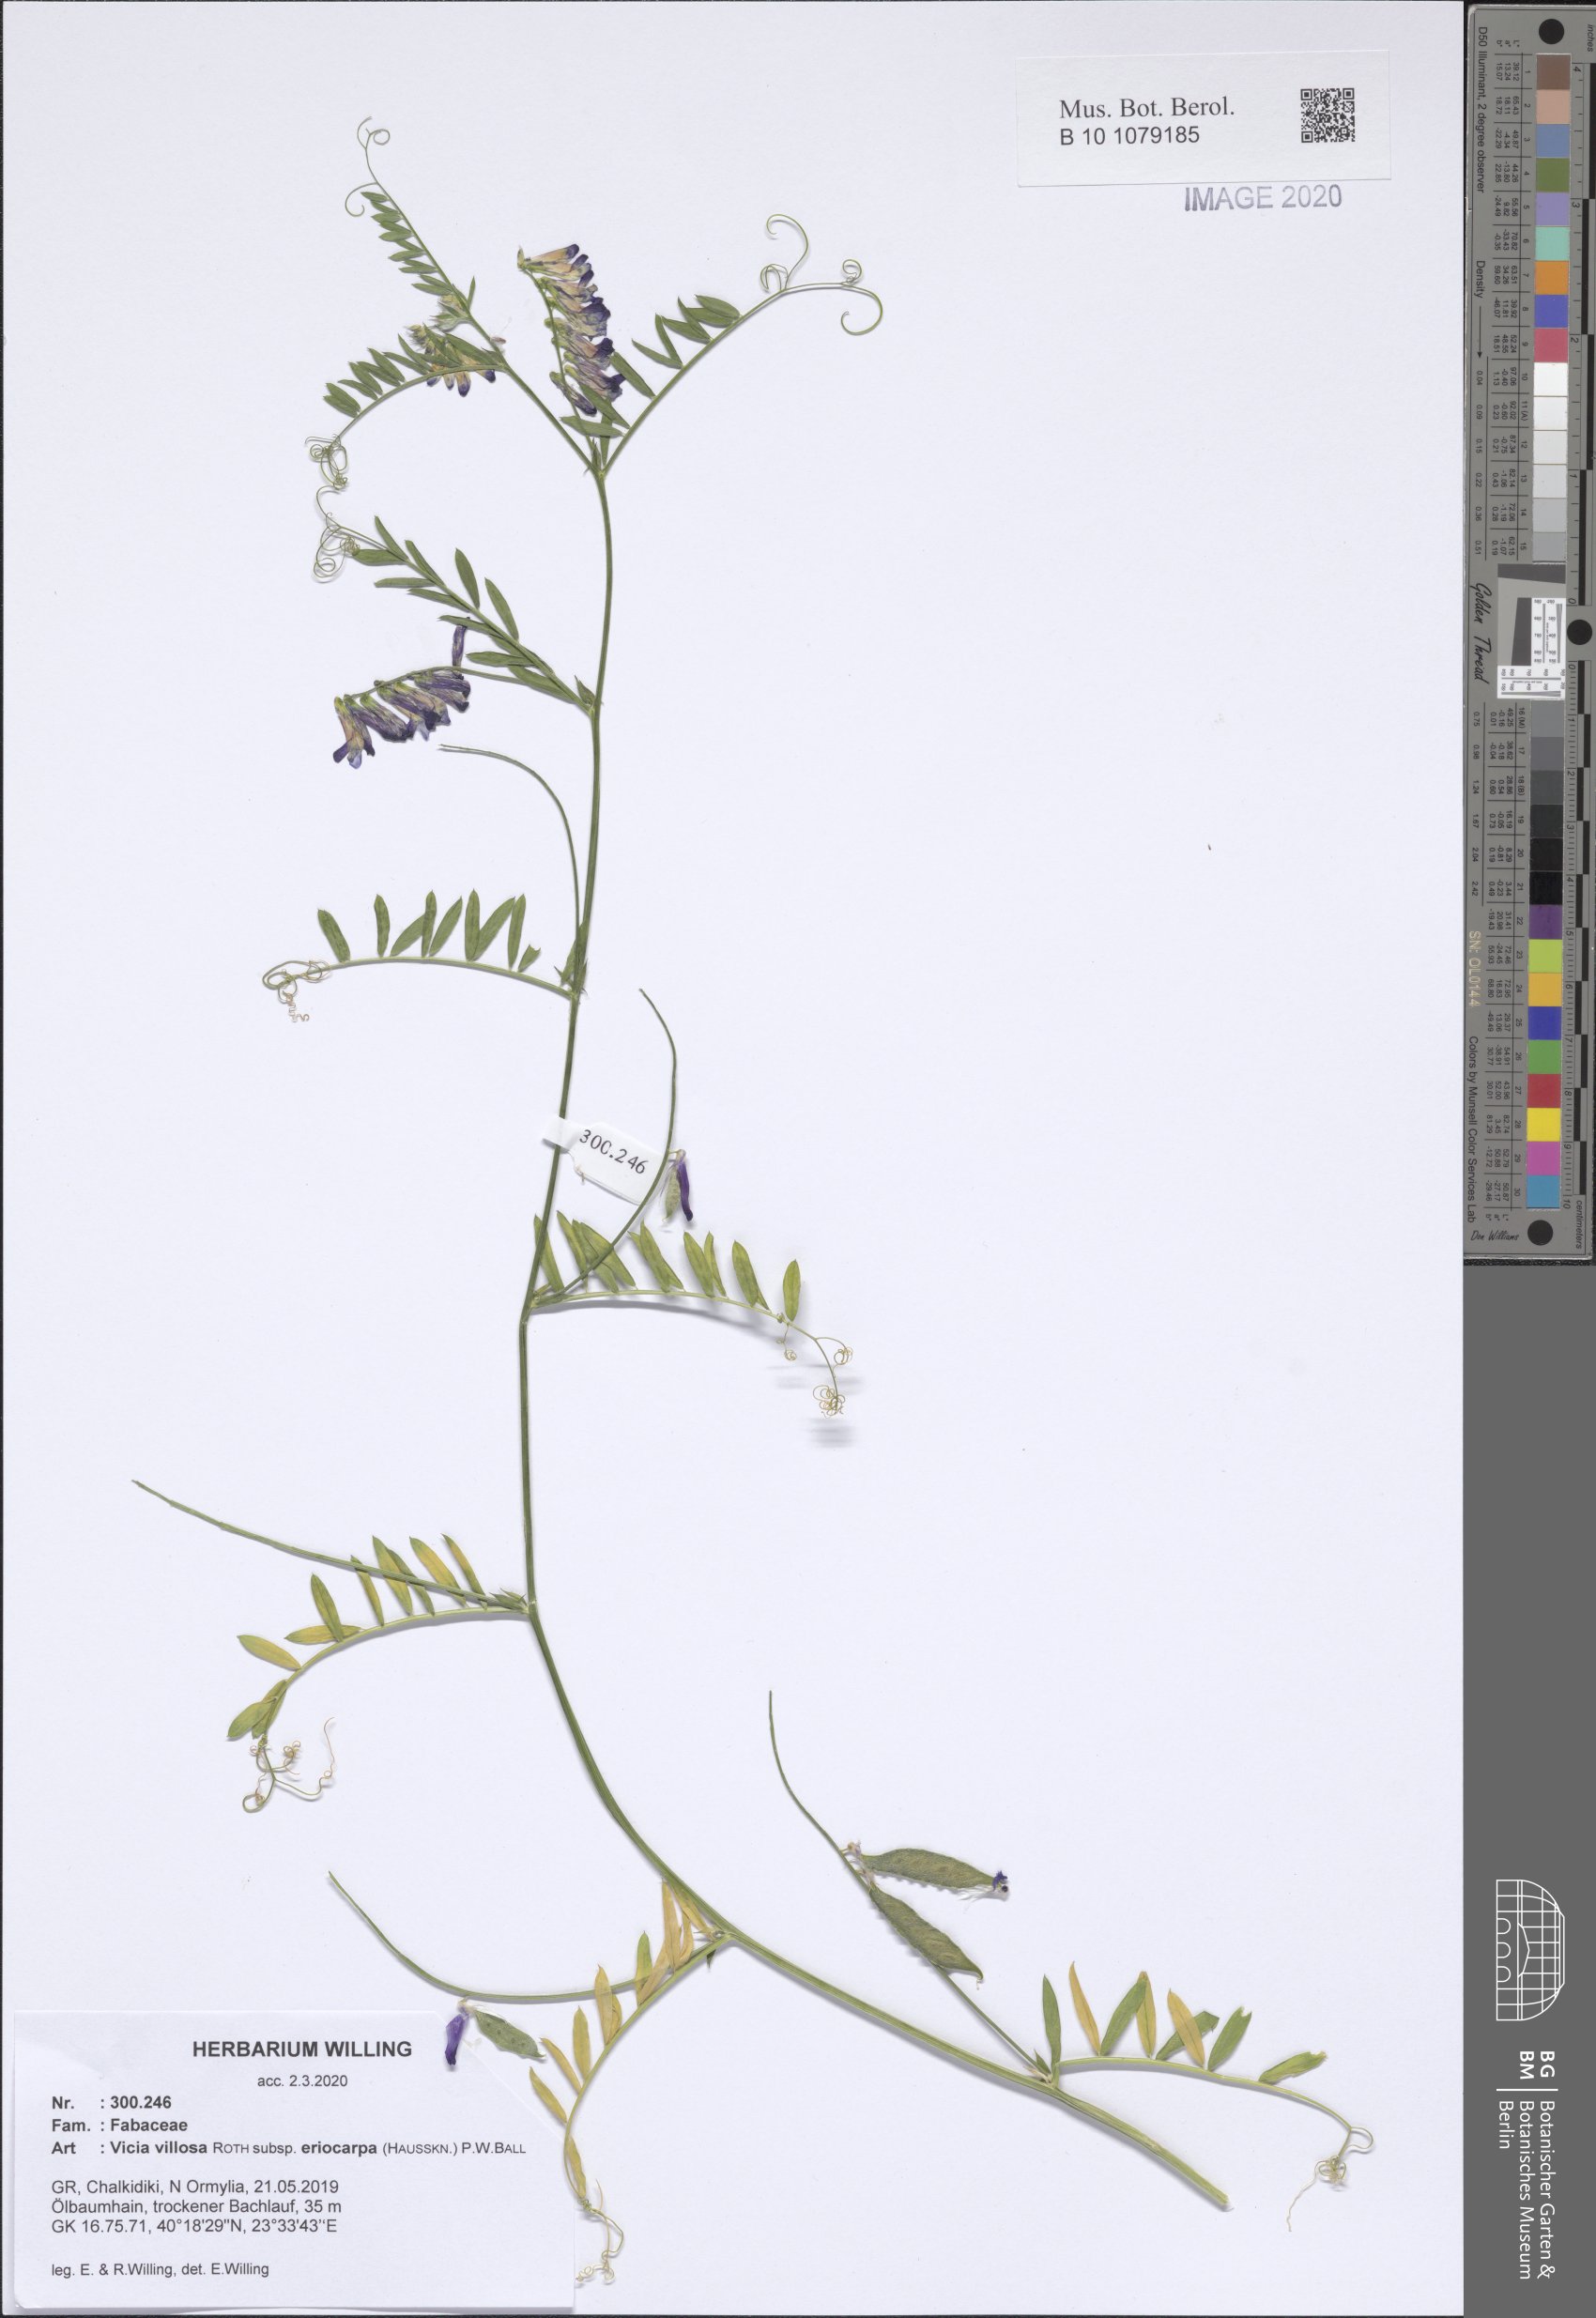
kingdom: Plantae
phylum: Tracheophyta
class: Magnoliopsida
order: Fabales
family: Fabaceae
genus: Vicia
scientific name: Vicia eriocarpa
